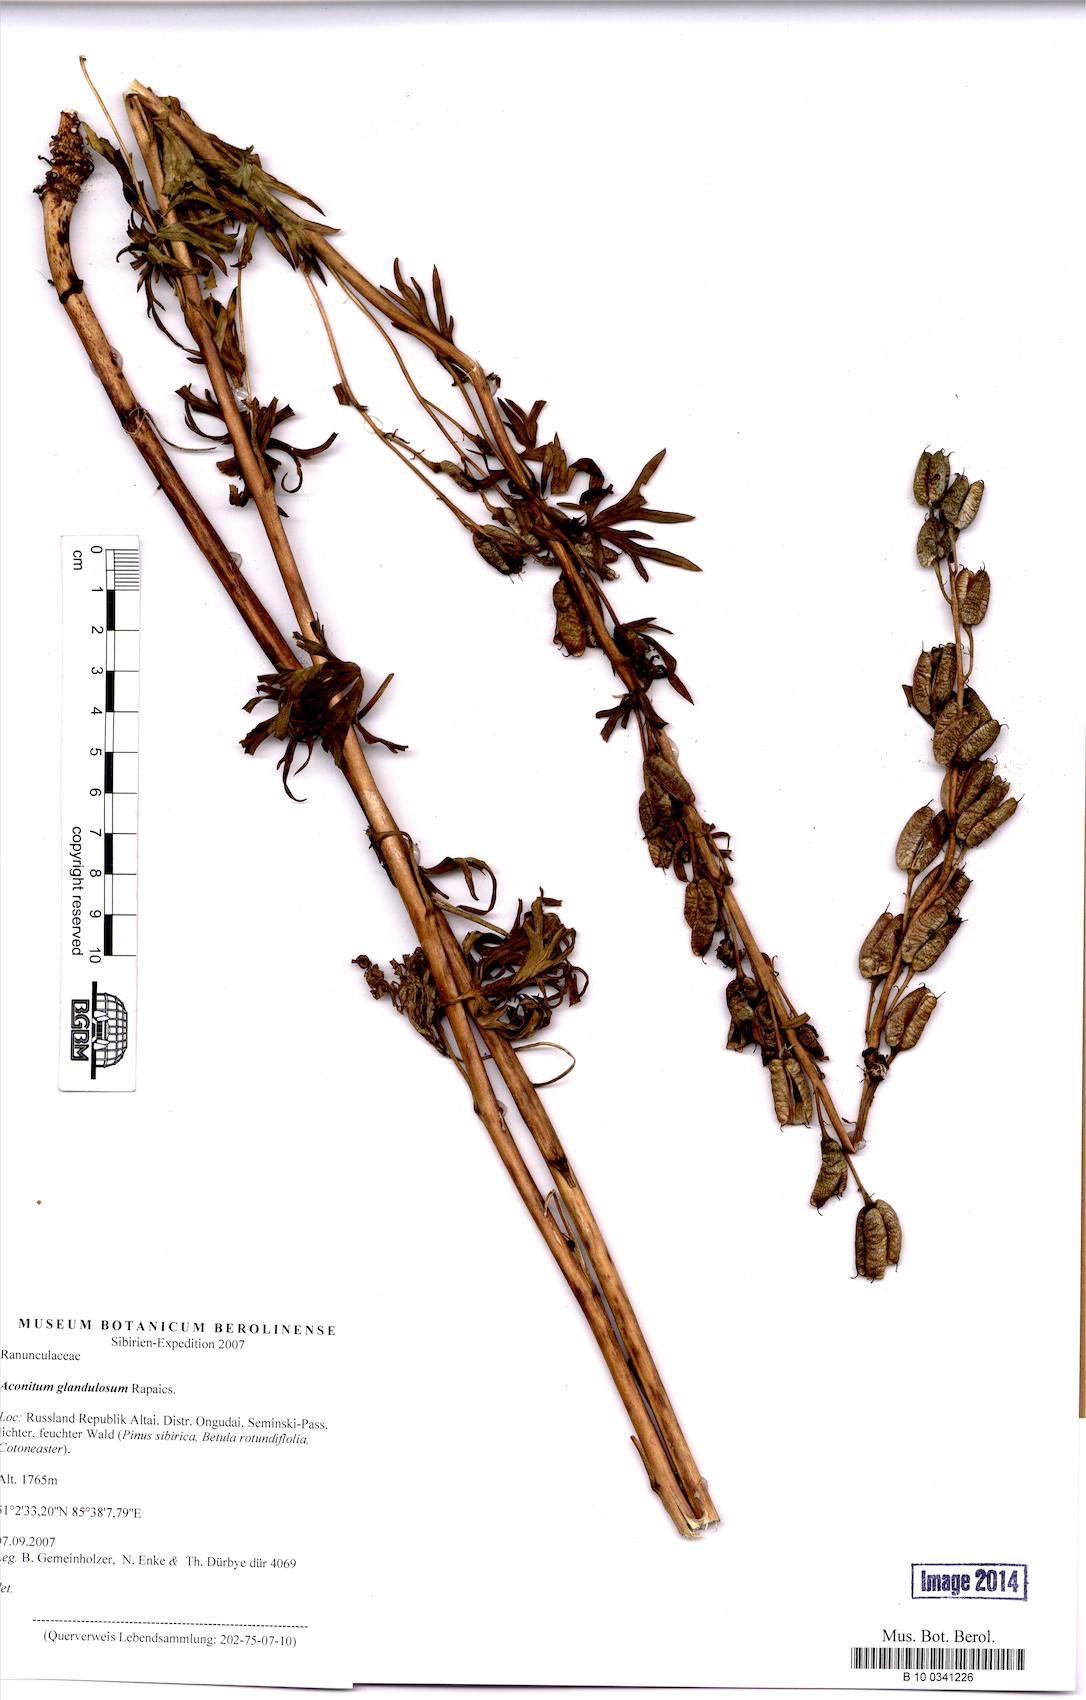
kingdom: Plantae
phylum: Tracheophyta
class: Magnoliopsida
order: Ranunculales
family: Ranunculaceae
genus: Aconitum
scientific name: Aconitum glandulosum
